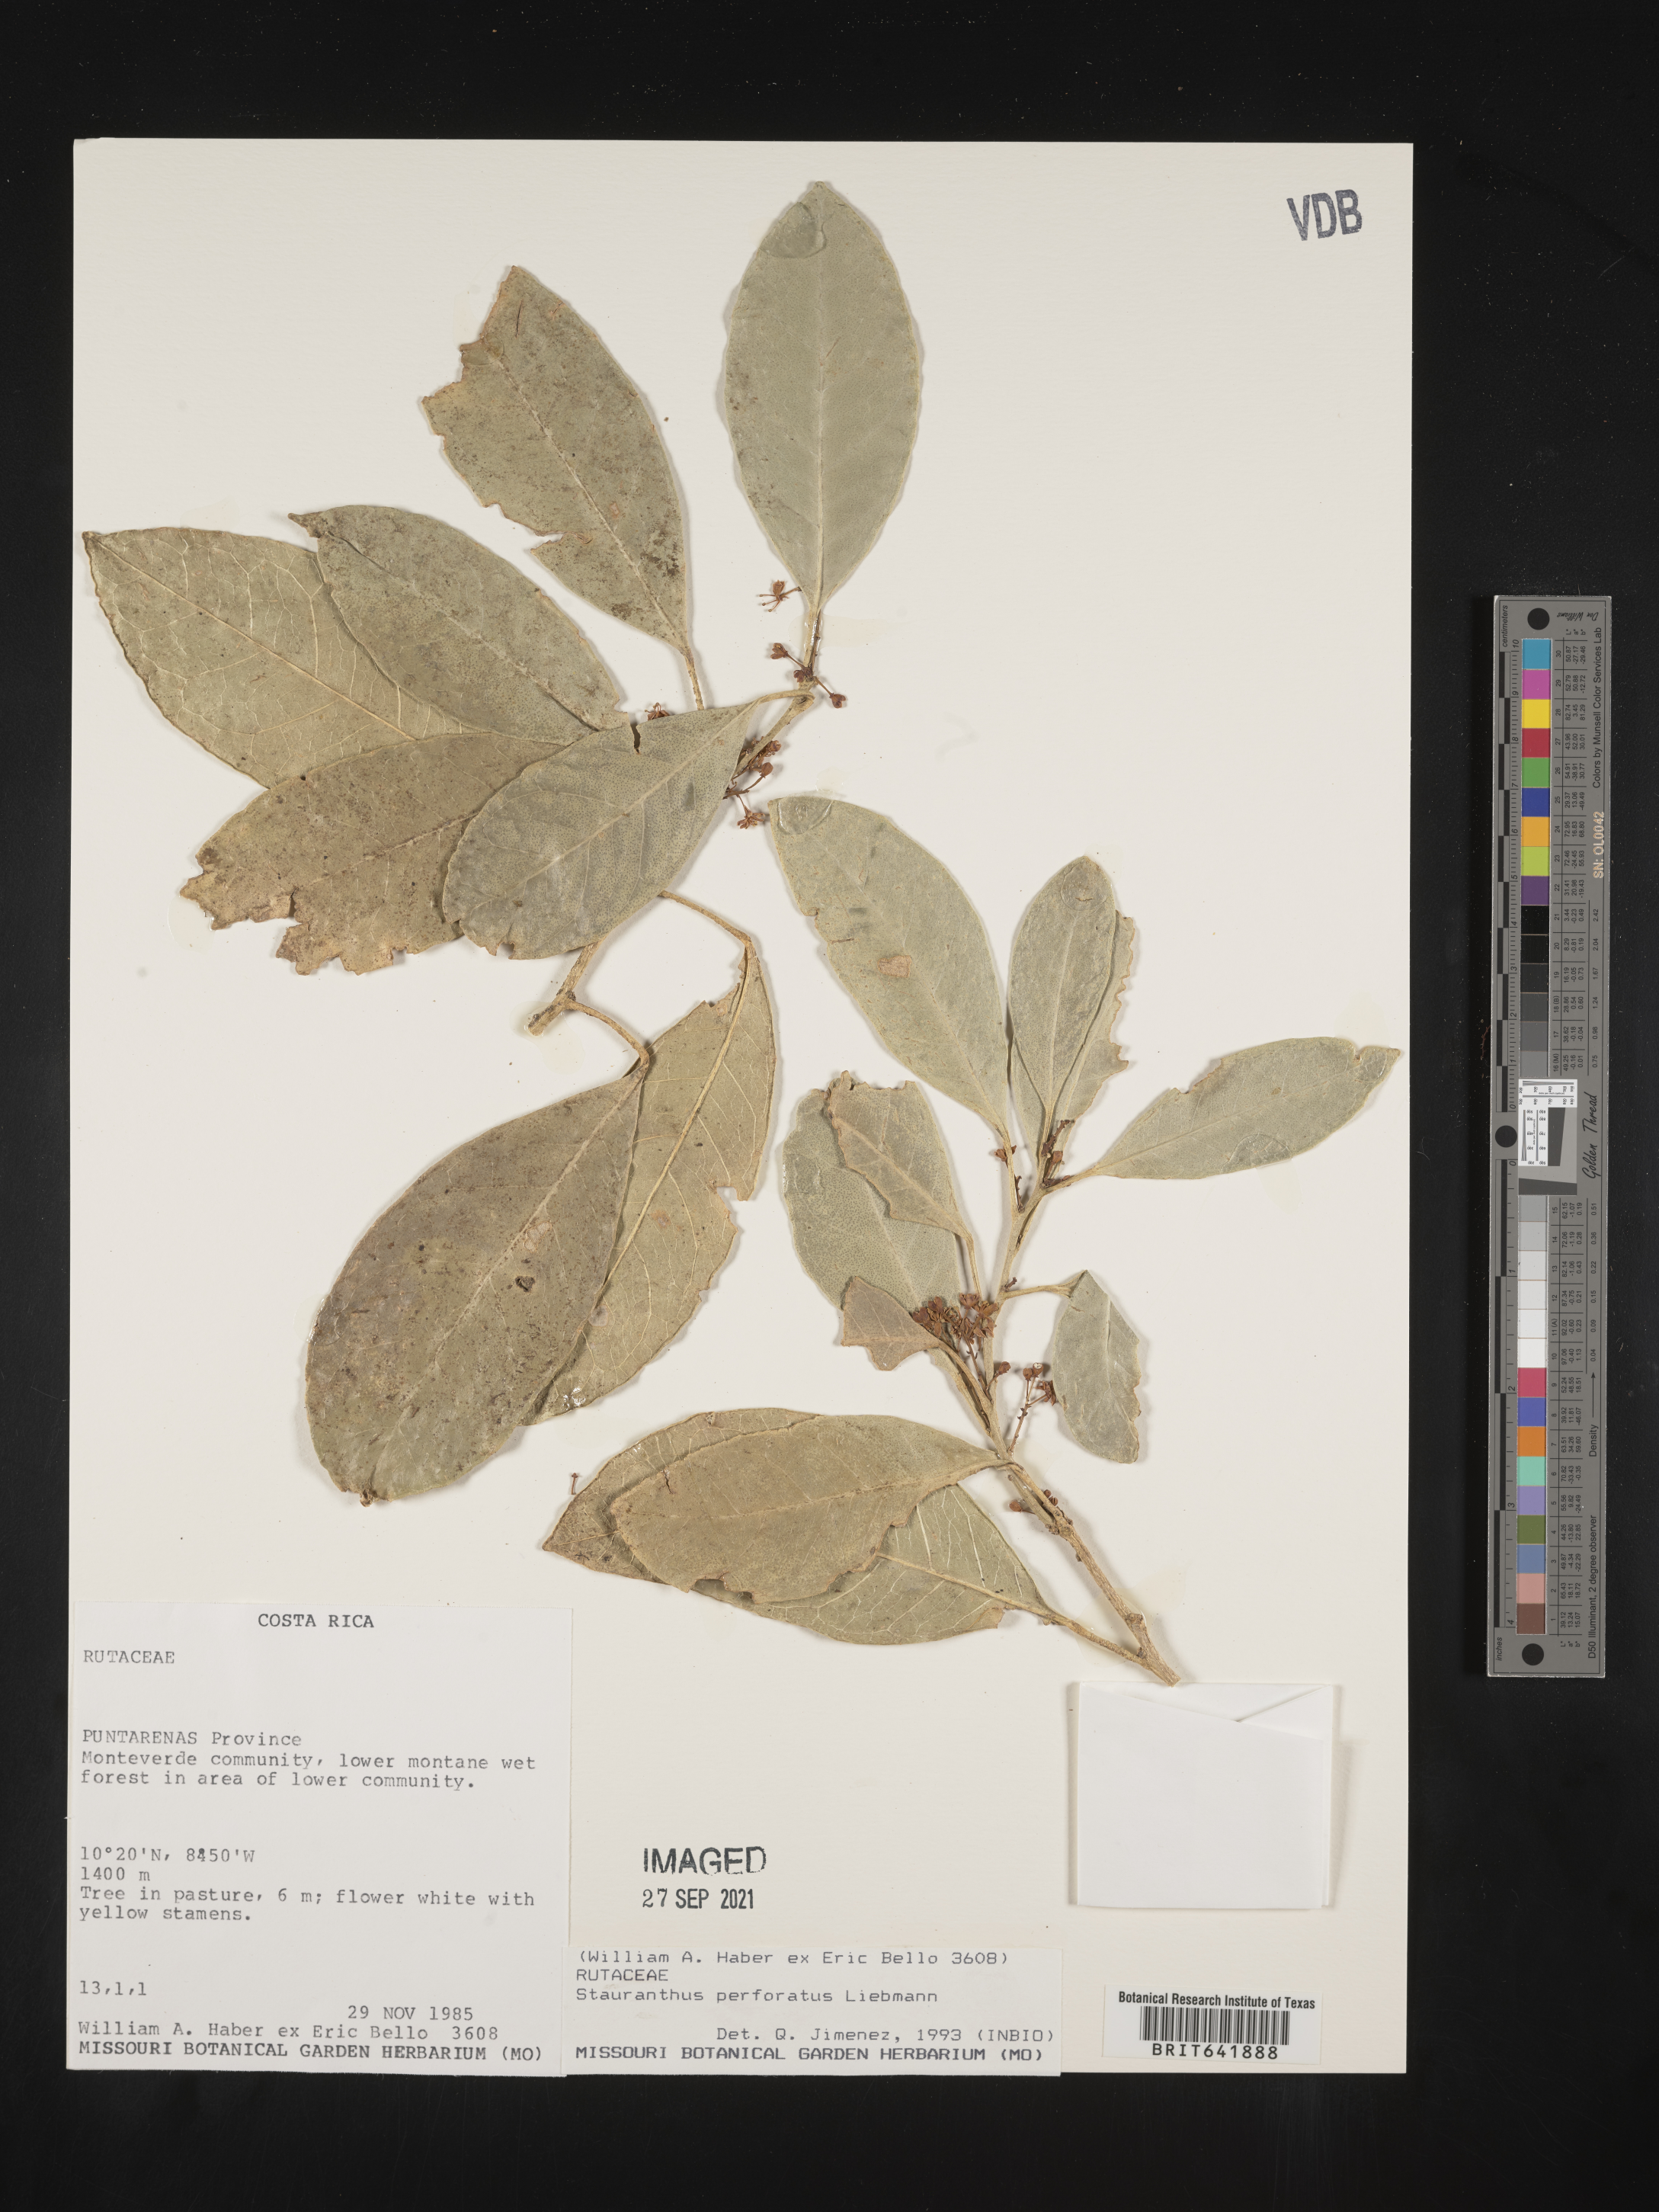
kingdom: Plantae
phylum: Tracheophyta
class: Magnoliopsida
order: Sapindales
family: Rutaceae
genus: Stauranthus
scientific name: Stauranthus
